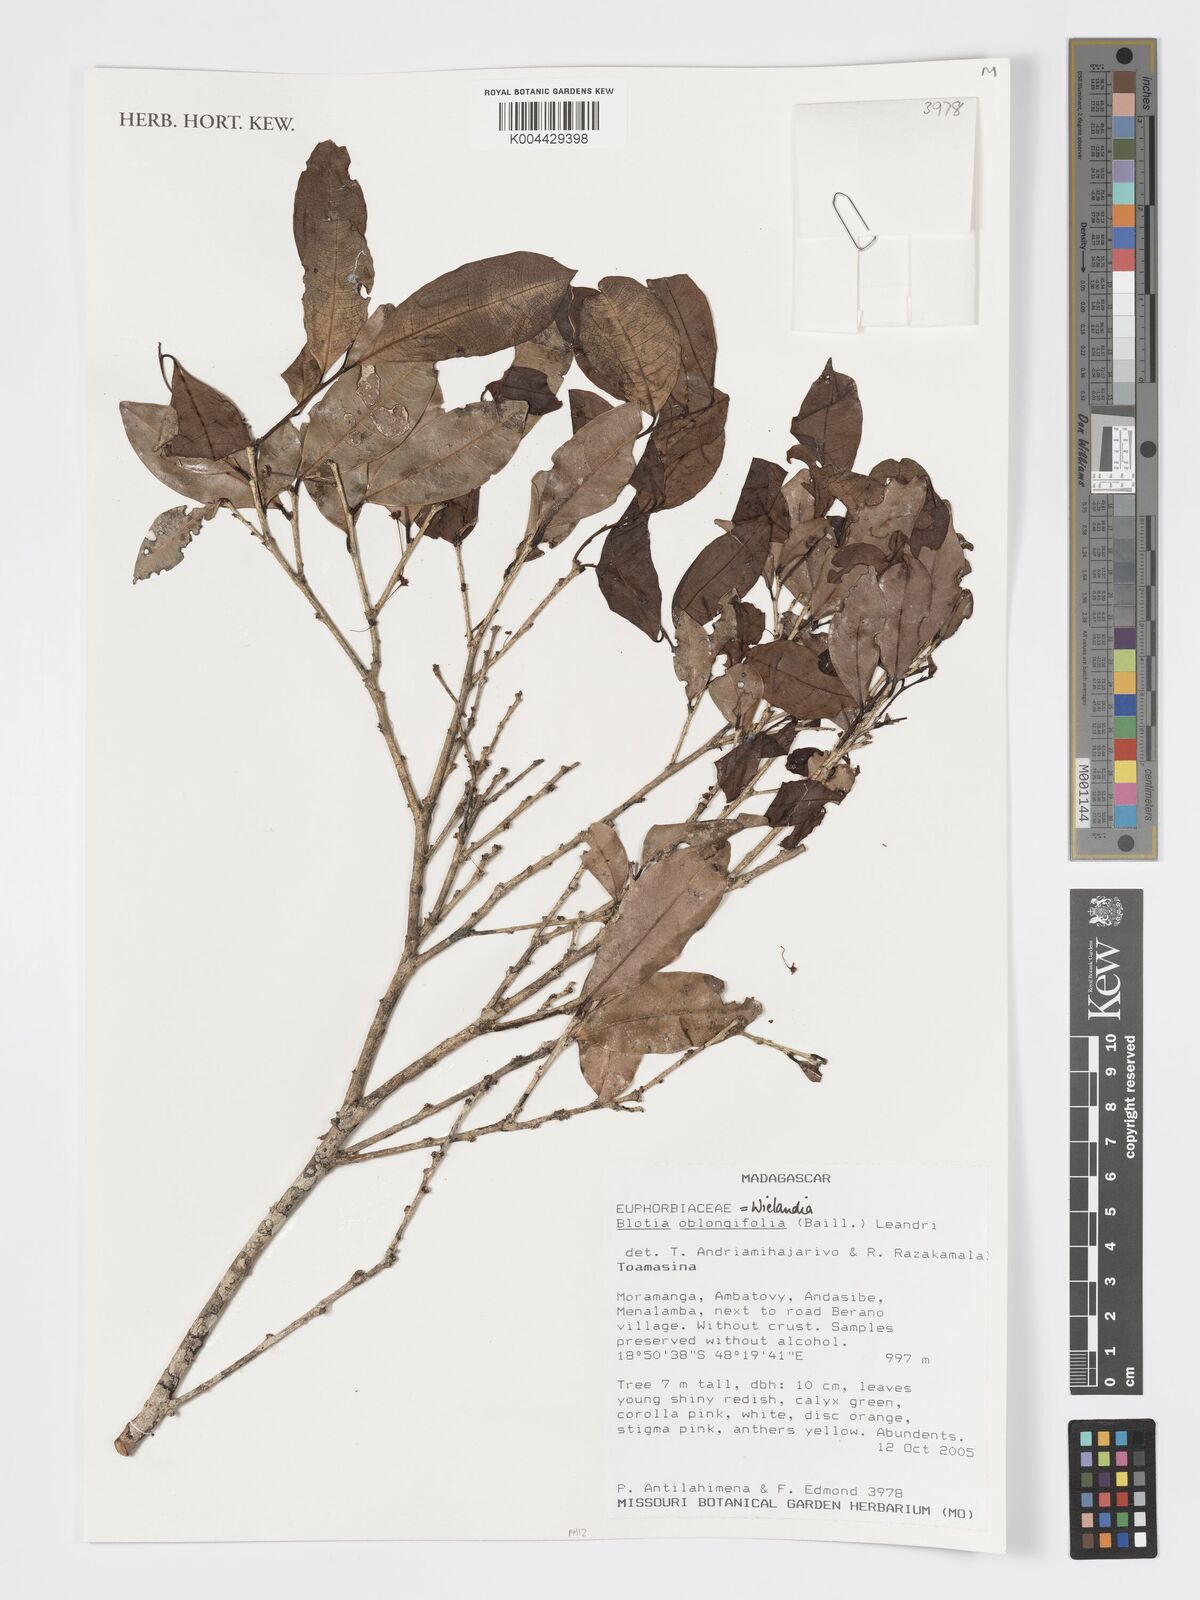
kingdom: Plantae
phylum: Tracheophyta
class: Magnoliopsida
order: Malpighiales
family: Phyllanthaceae
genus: Wielandia
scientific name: Wielandia oblongifolia
